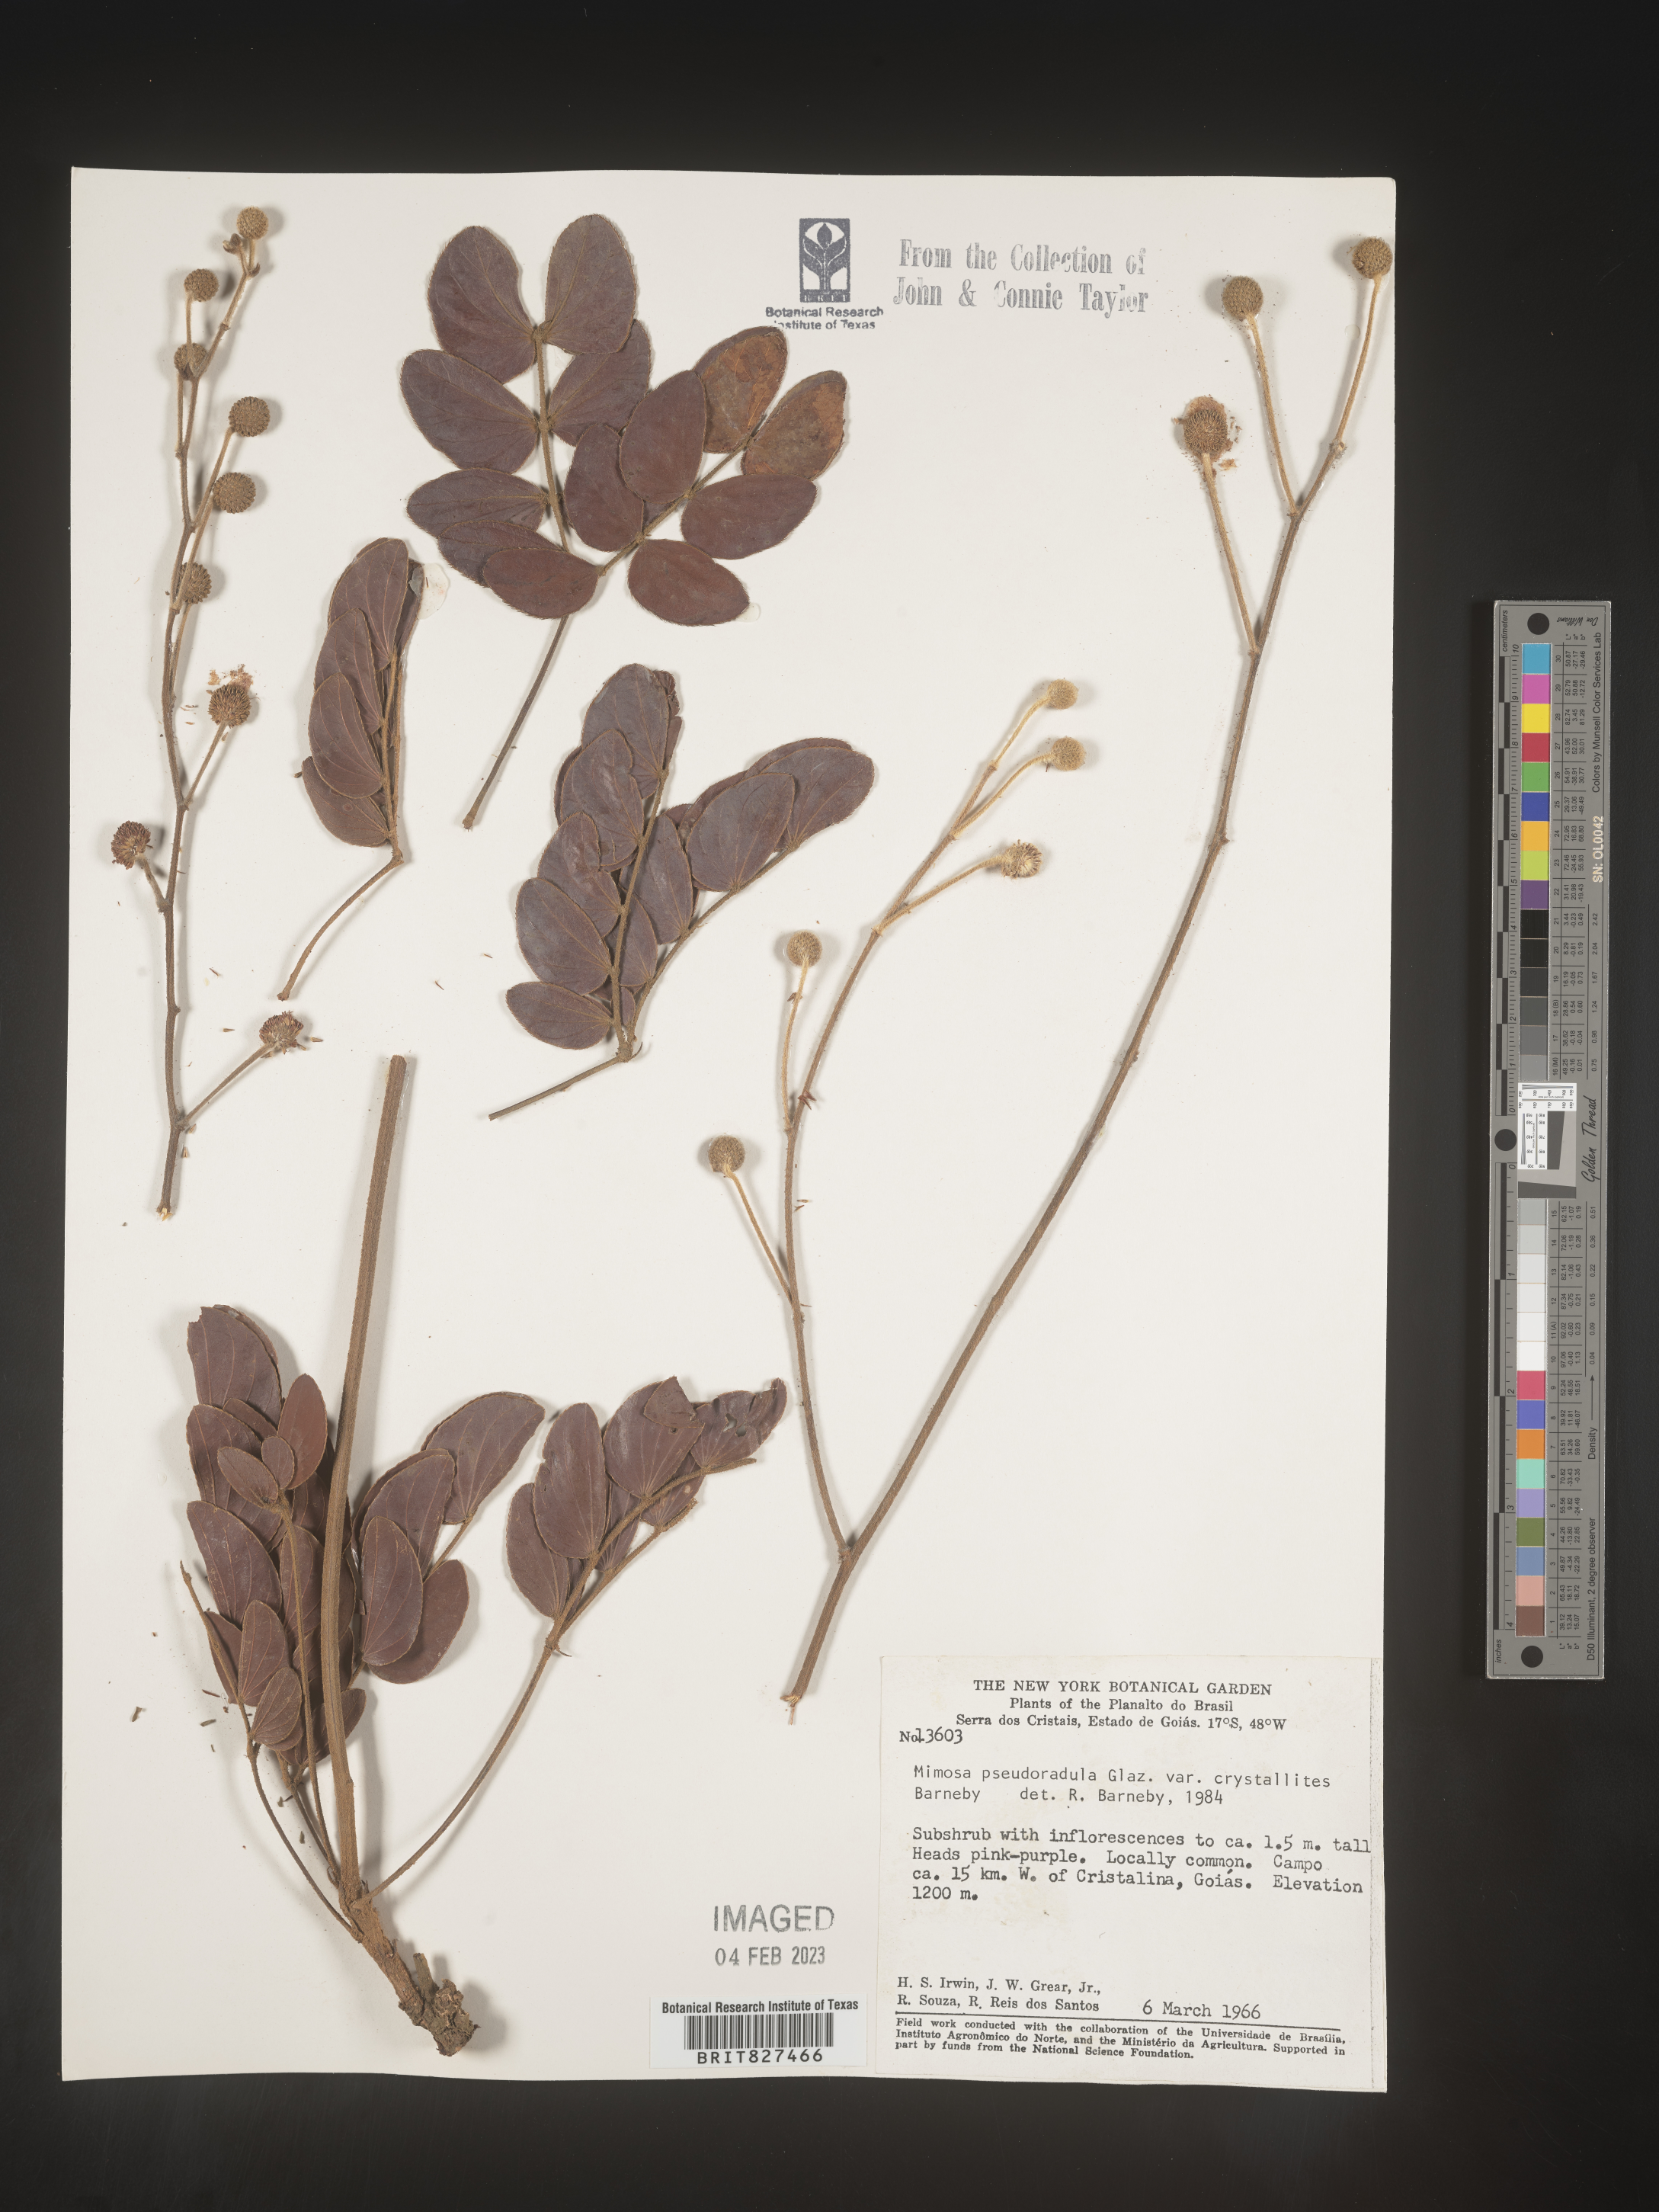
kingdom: Plantae
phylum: Tracheophyta
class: Magnoliopsida
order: Fabales
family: Fabaceae
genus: Mimosa
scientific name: Mimosa
